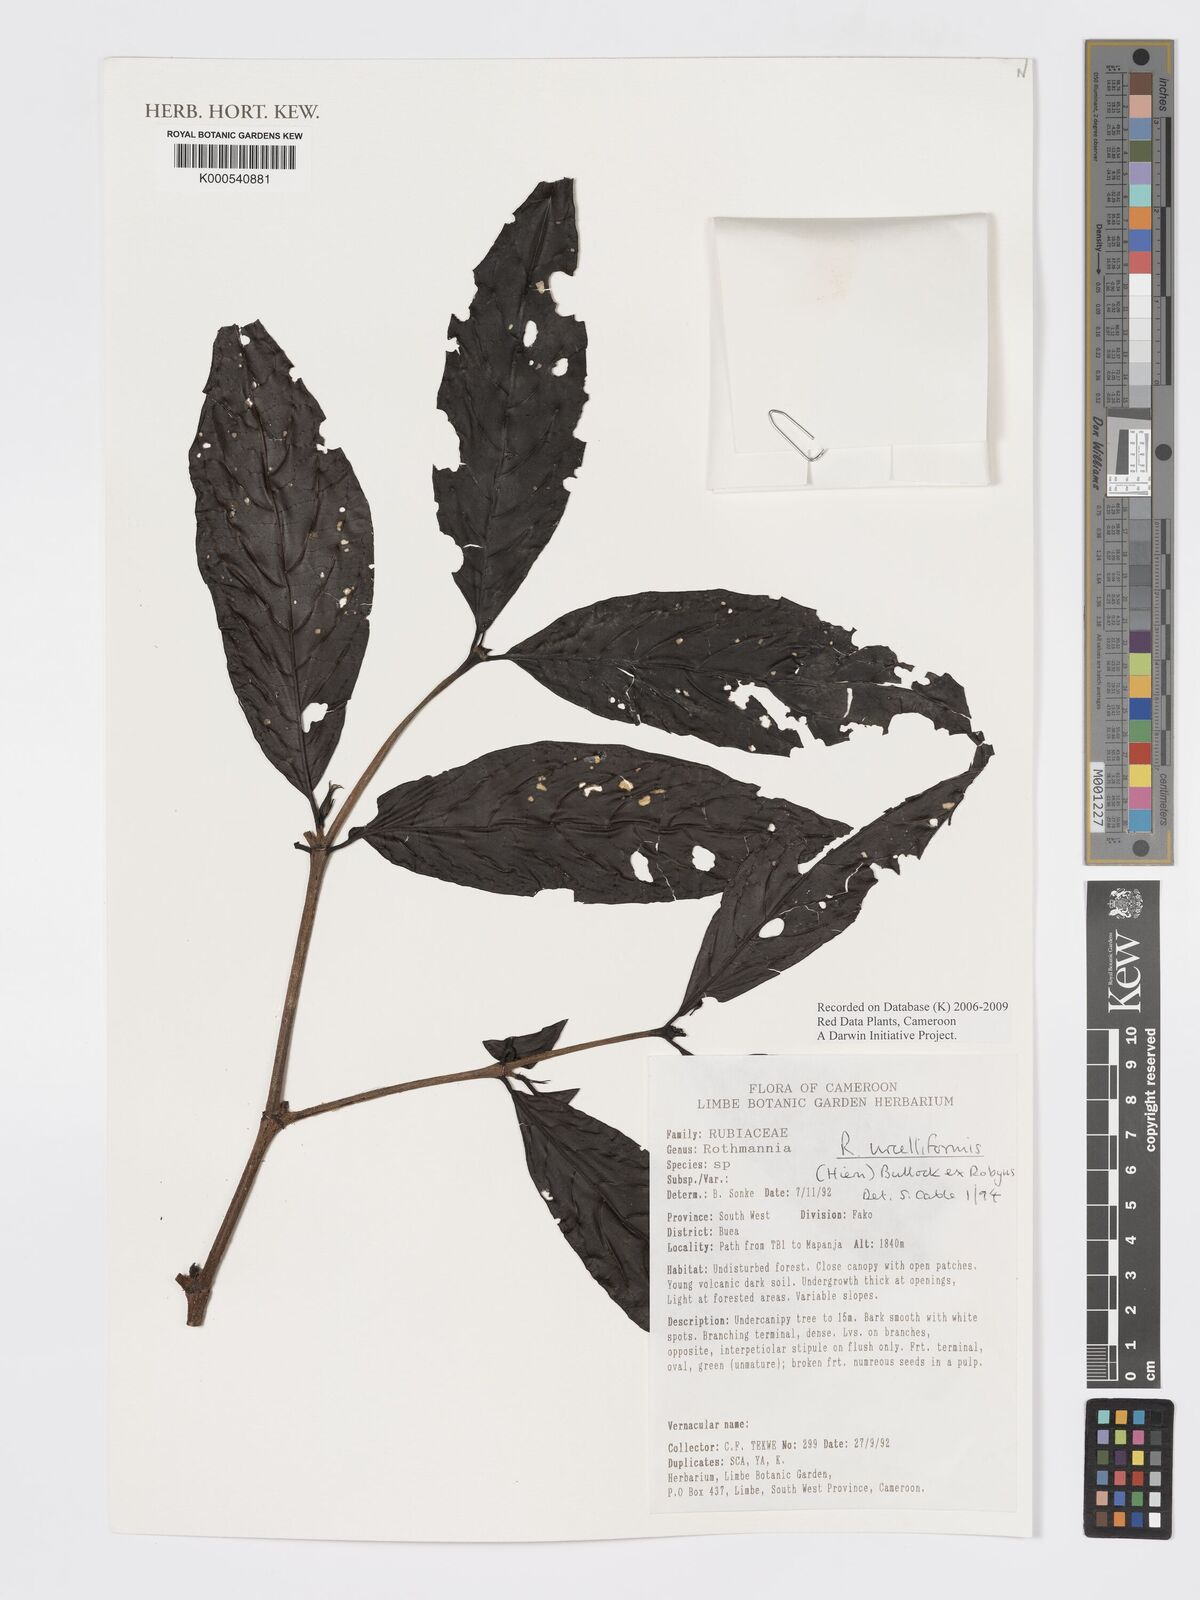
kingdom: Plantae
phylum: Tracheophyta
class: Magnoliopsida
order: Gentianales
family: Rubiaceae
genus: Rothmannia
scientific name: Rothmannia urcelliformis
